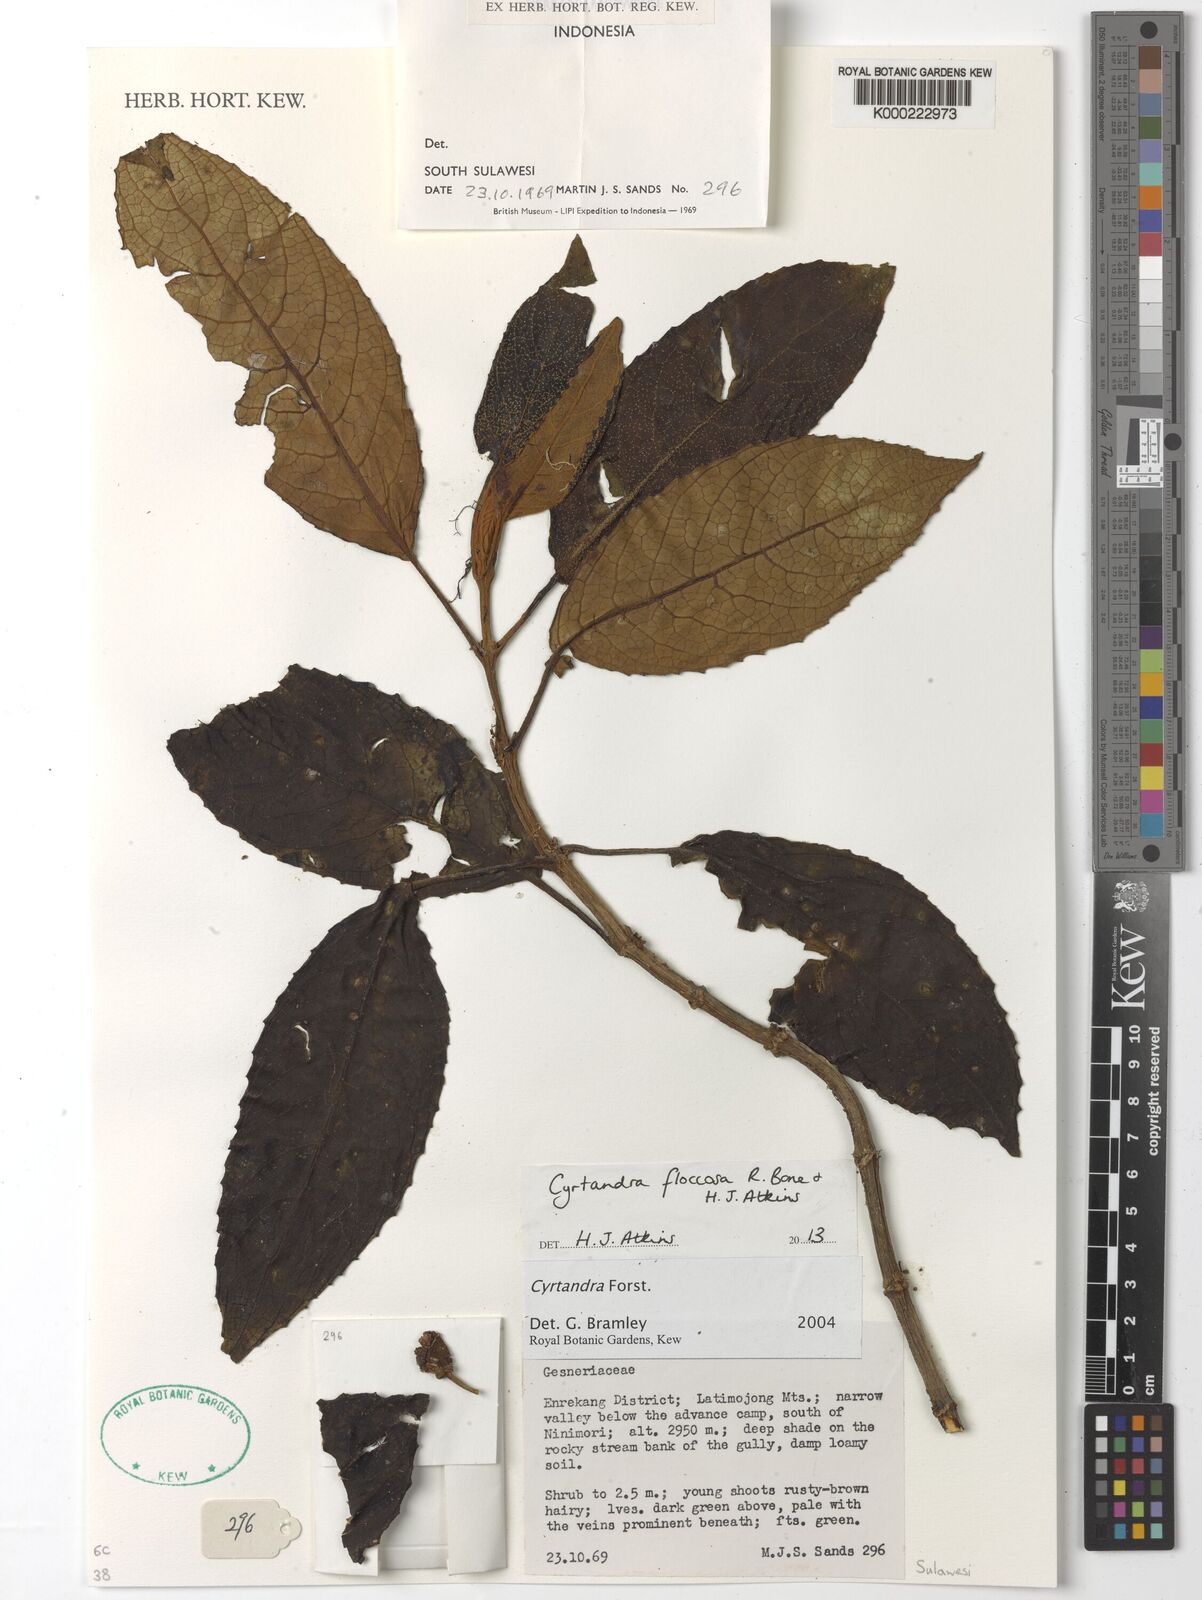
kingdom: Plantae
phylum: Tracheophyta
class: Magnoliopsida
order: Lamiales
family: Gesneriaceae
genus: Cyrtandra
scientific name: Cyrtandra floccosa
